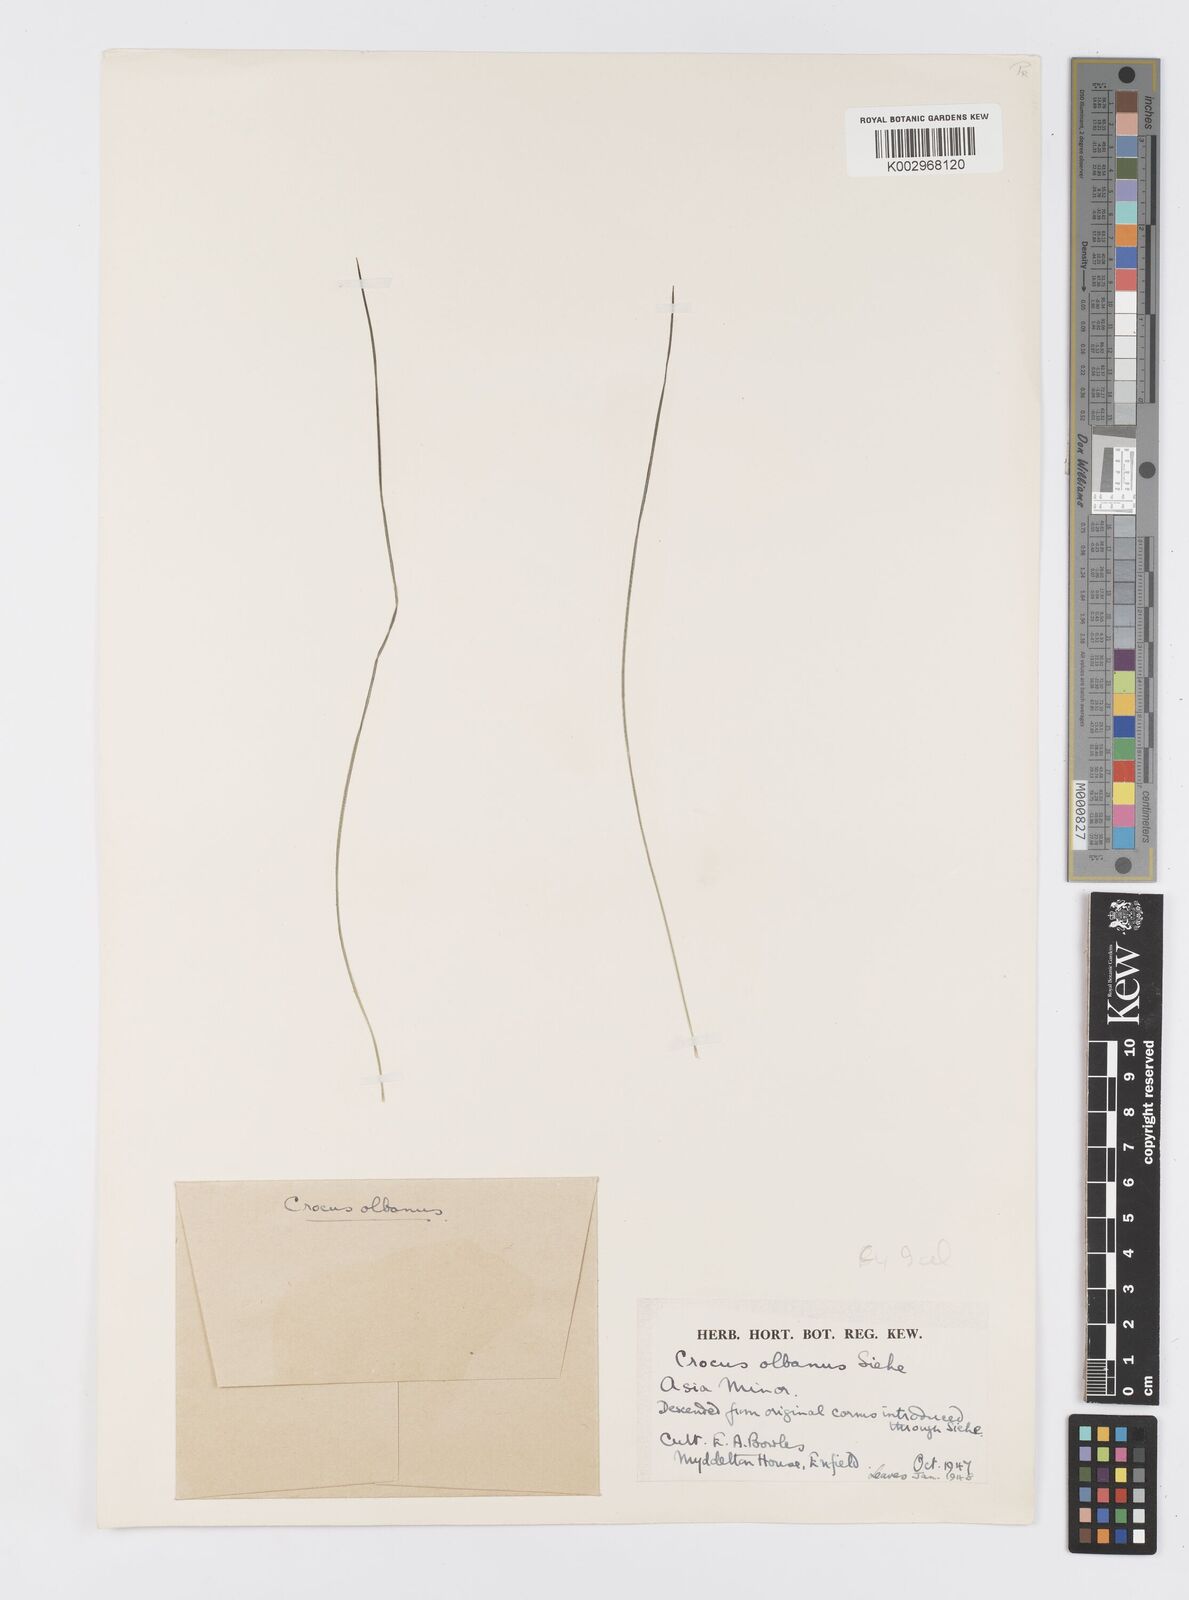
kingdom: Plantae
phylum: Tracheophyta
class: Liliopsida
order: Asparagales
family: Iridaceae
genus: Crocus
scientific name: Crocus
